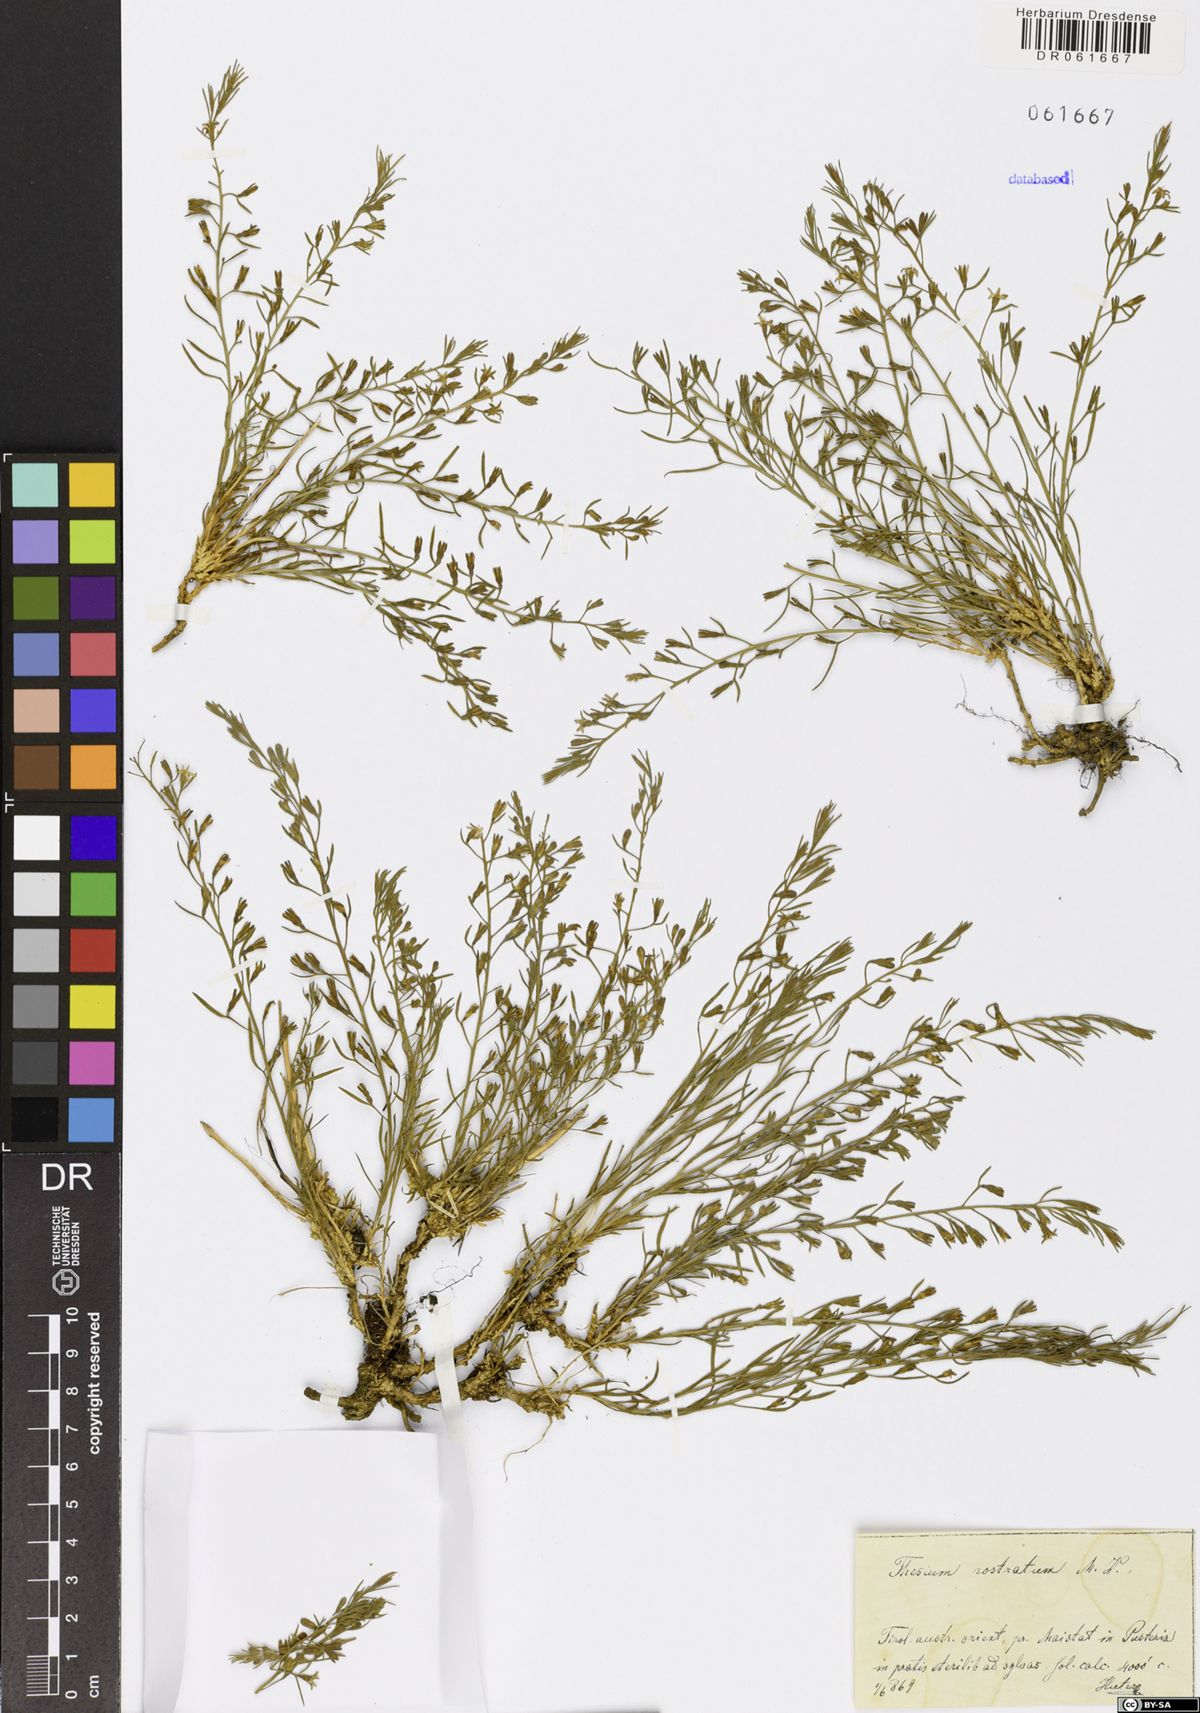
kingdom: Plantae
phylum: Tracheophyta
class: Magnoliopsida
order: Santalales
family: Thesiaceae
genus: Thesium
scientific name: Thesium rostratum
